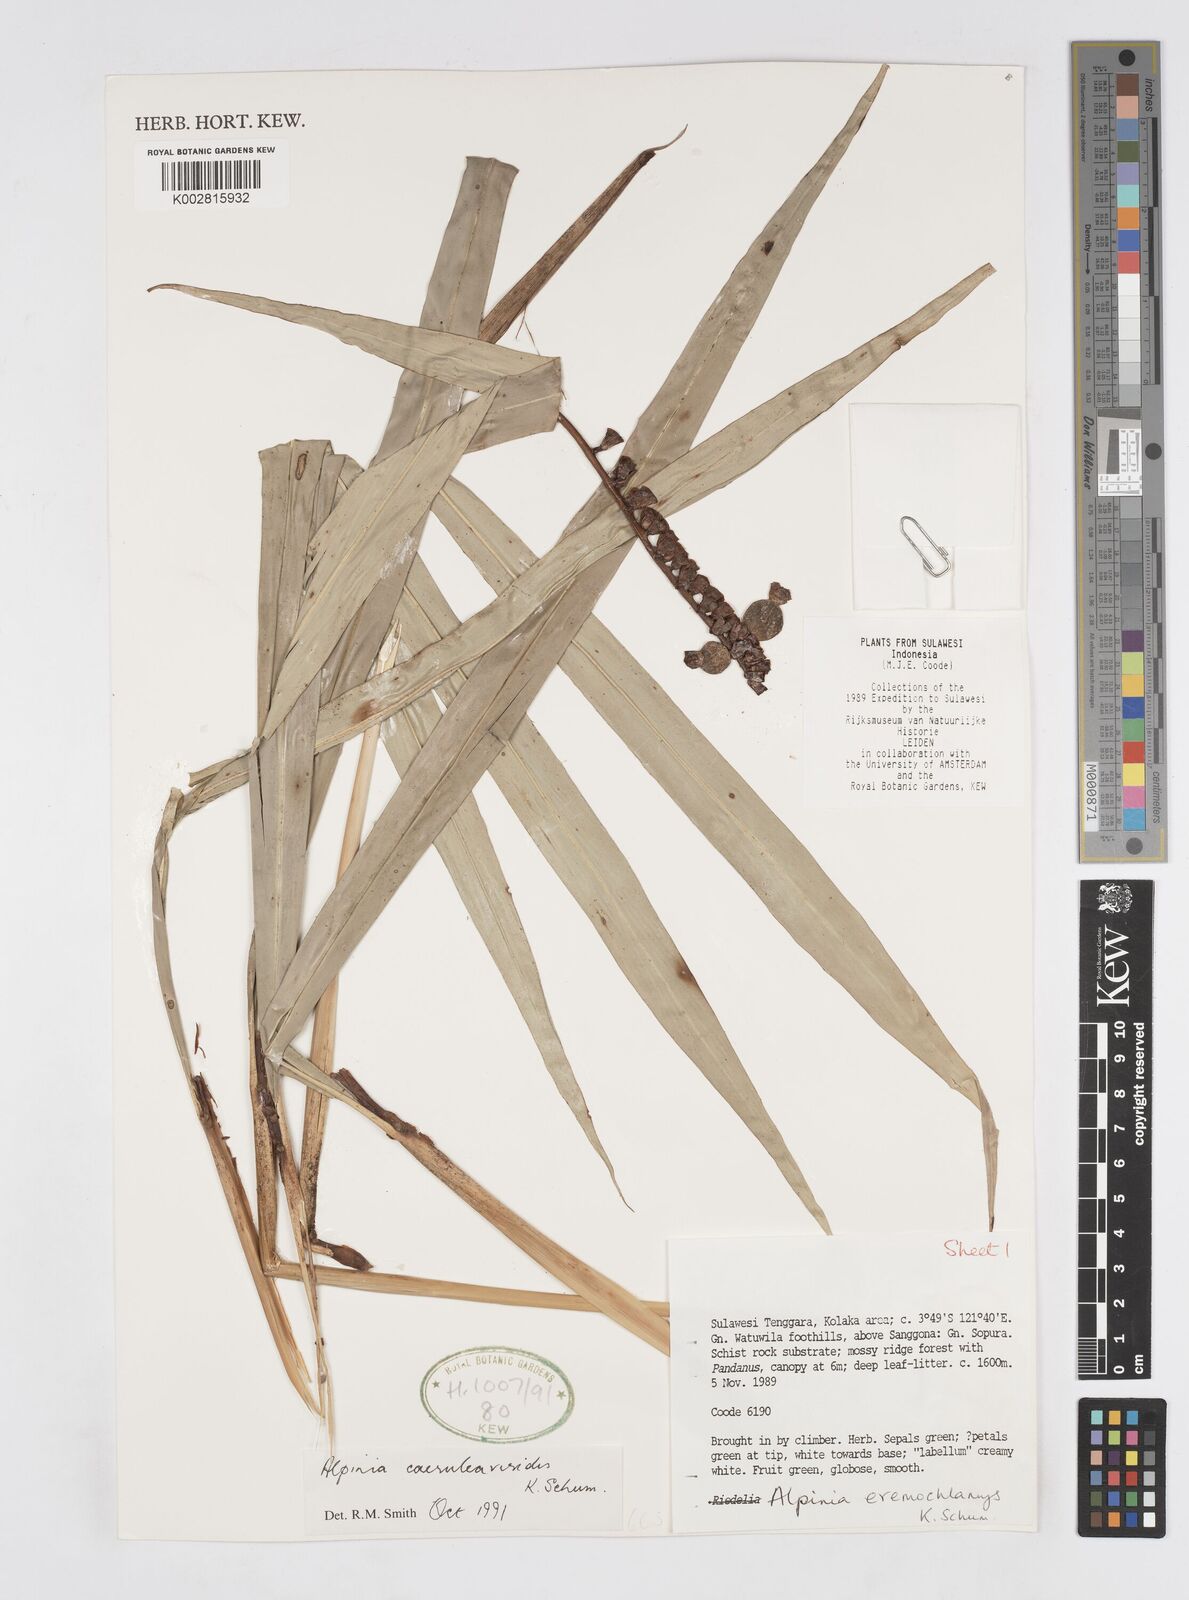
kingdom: Plantae
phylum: Tracheophyta
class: Liliopsida
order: Zingiberales
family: Zingiberaceae
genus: Alpinia
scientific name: Alpinia
